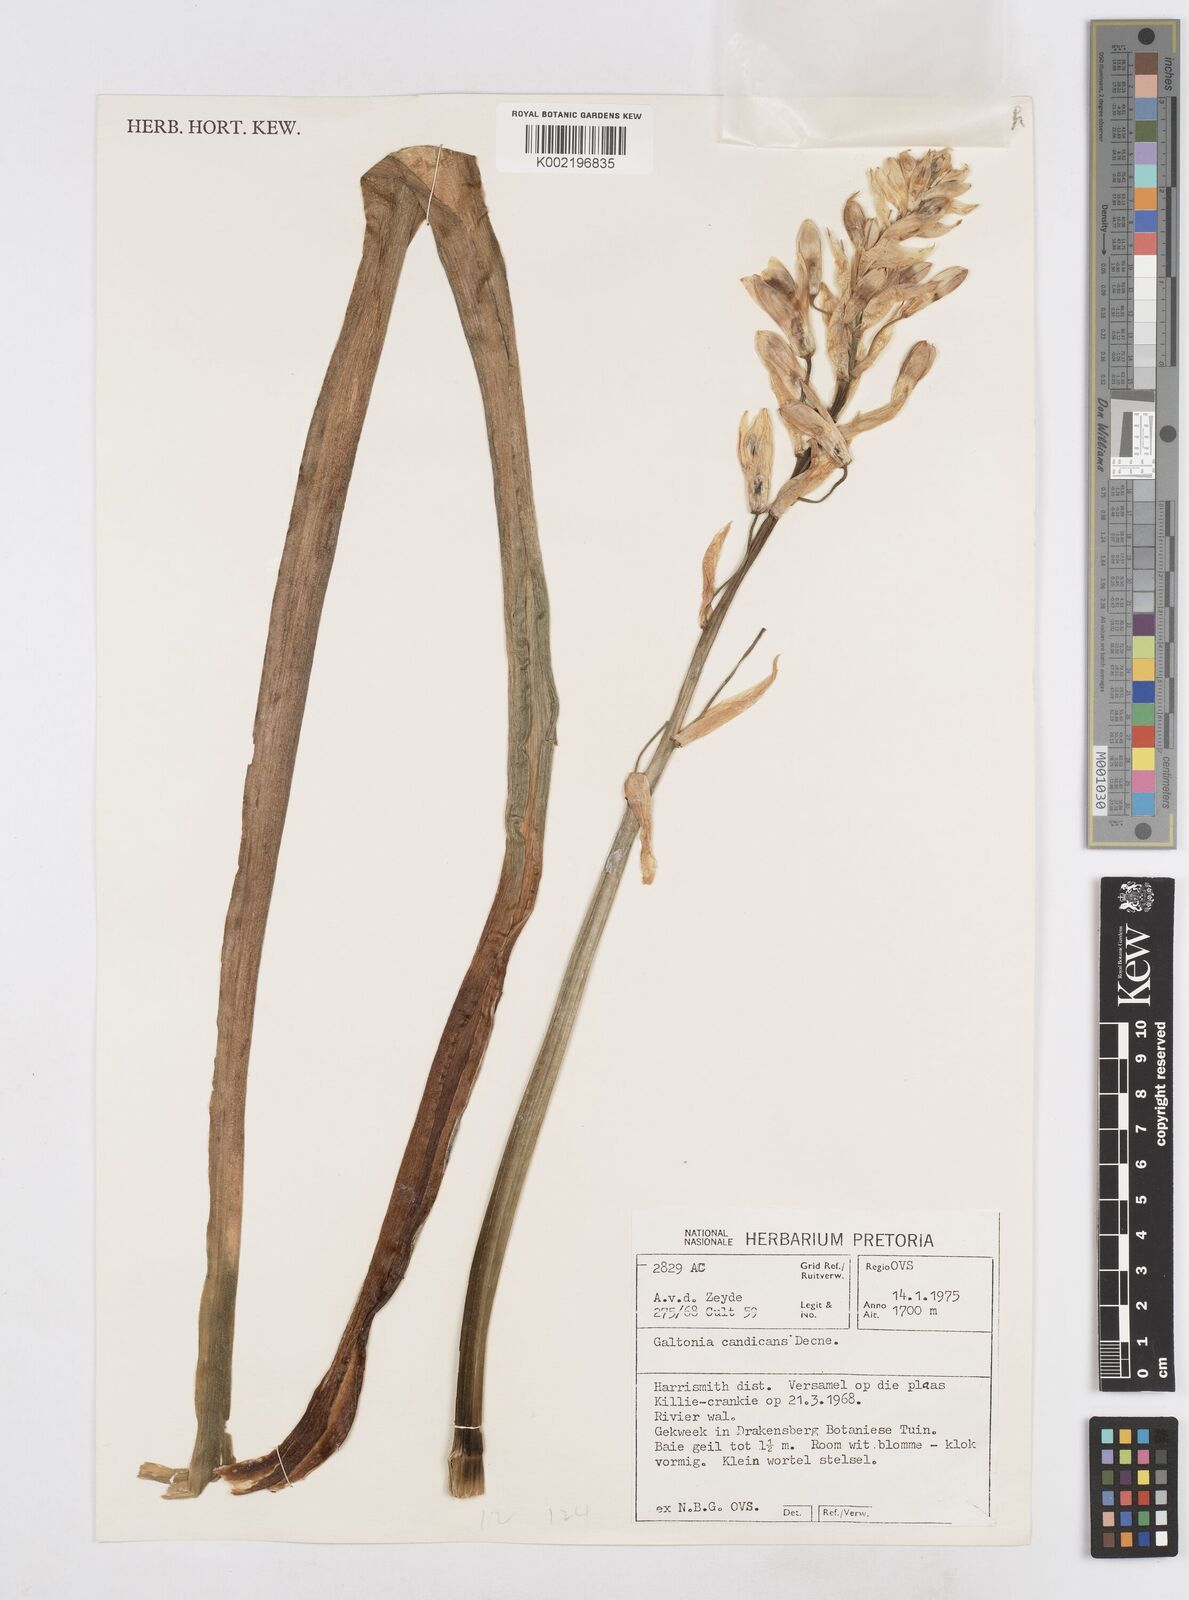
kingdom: Plantae
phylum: Tracheophyta
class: Liliopsida
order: Asparagales
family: Asparagaceae
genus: Ornithogalum
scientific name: Ornithogalum candicans
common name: Summer-hyacinth
